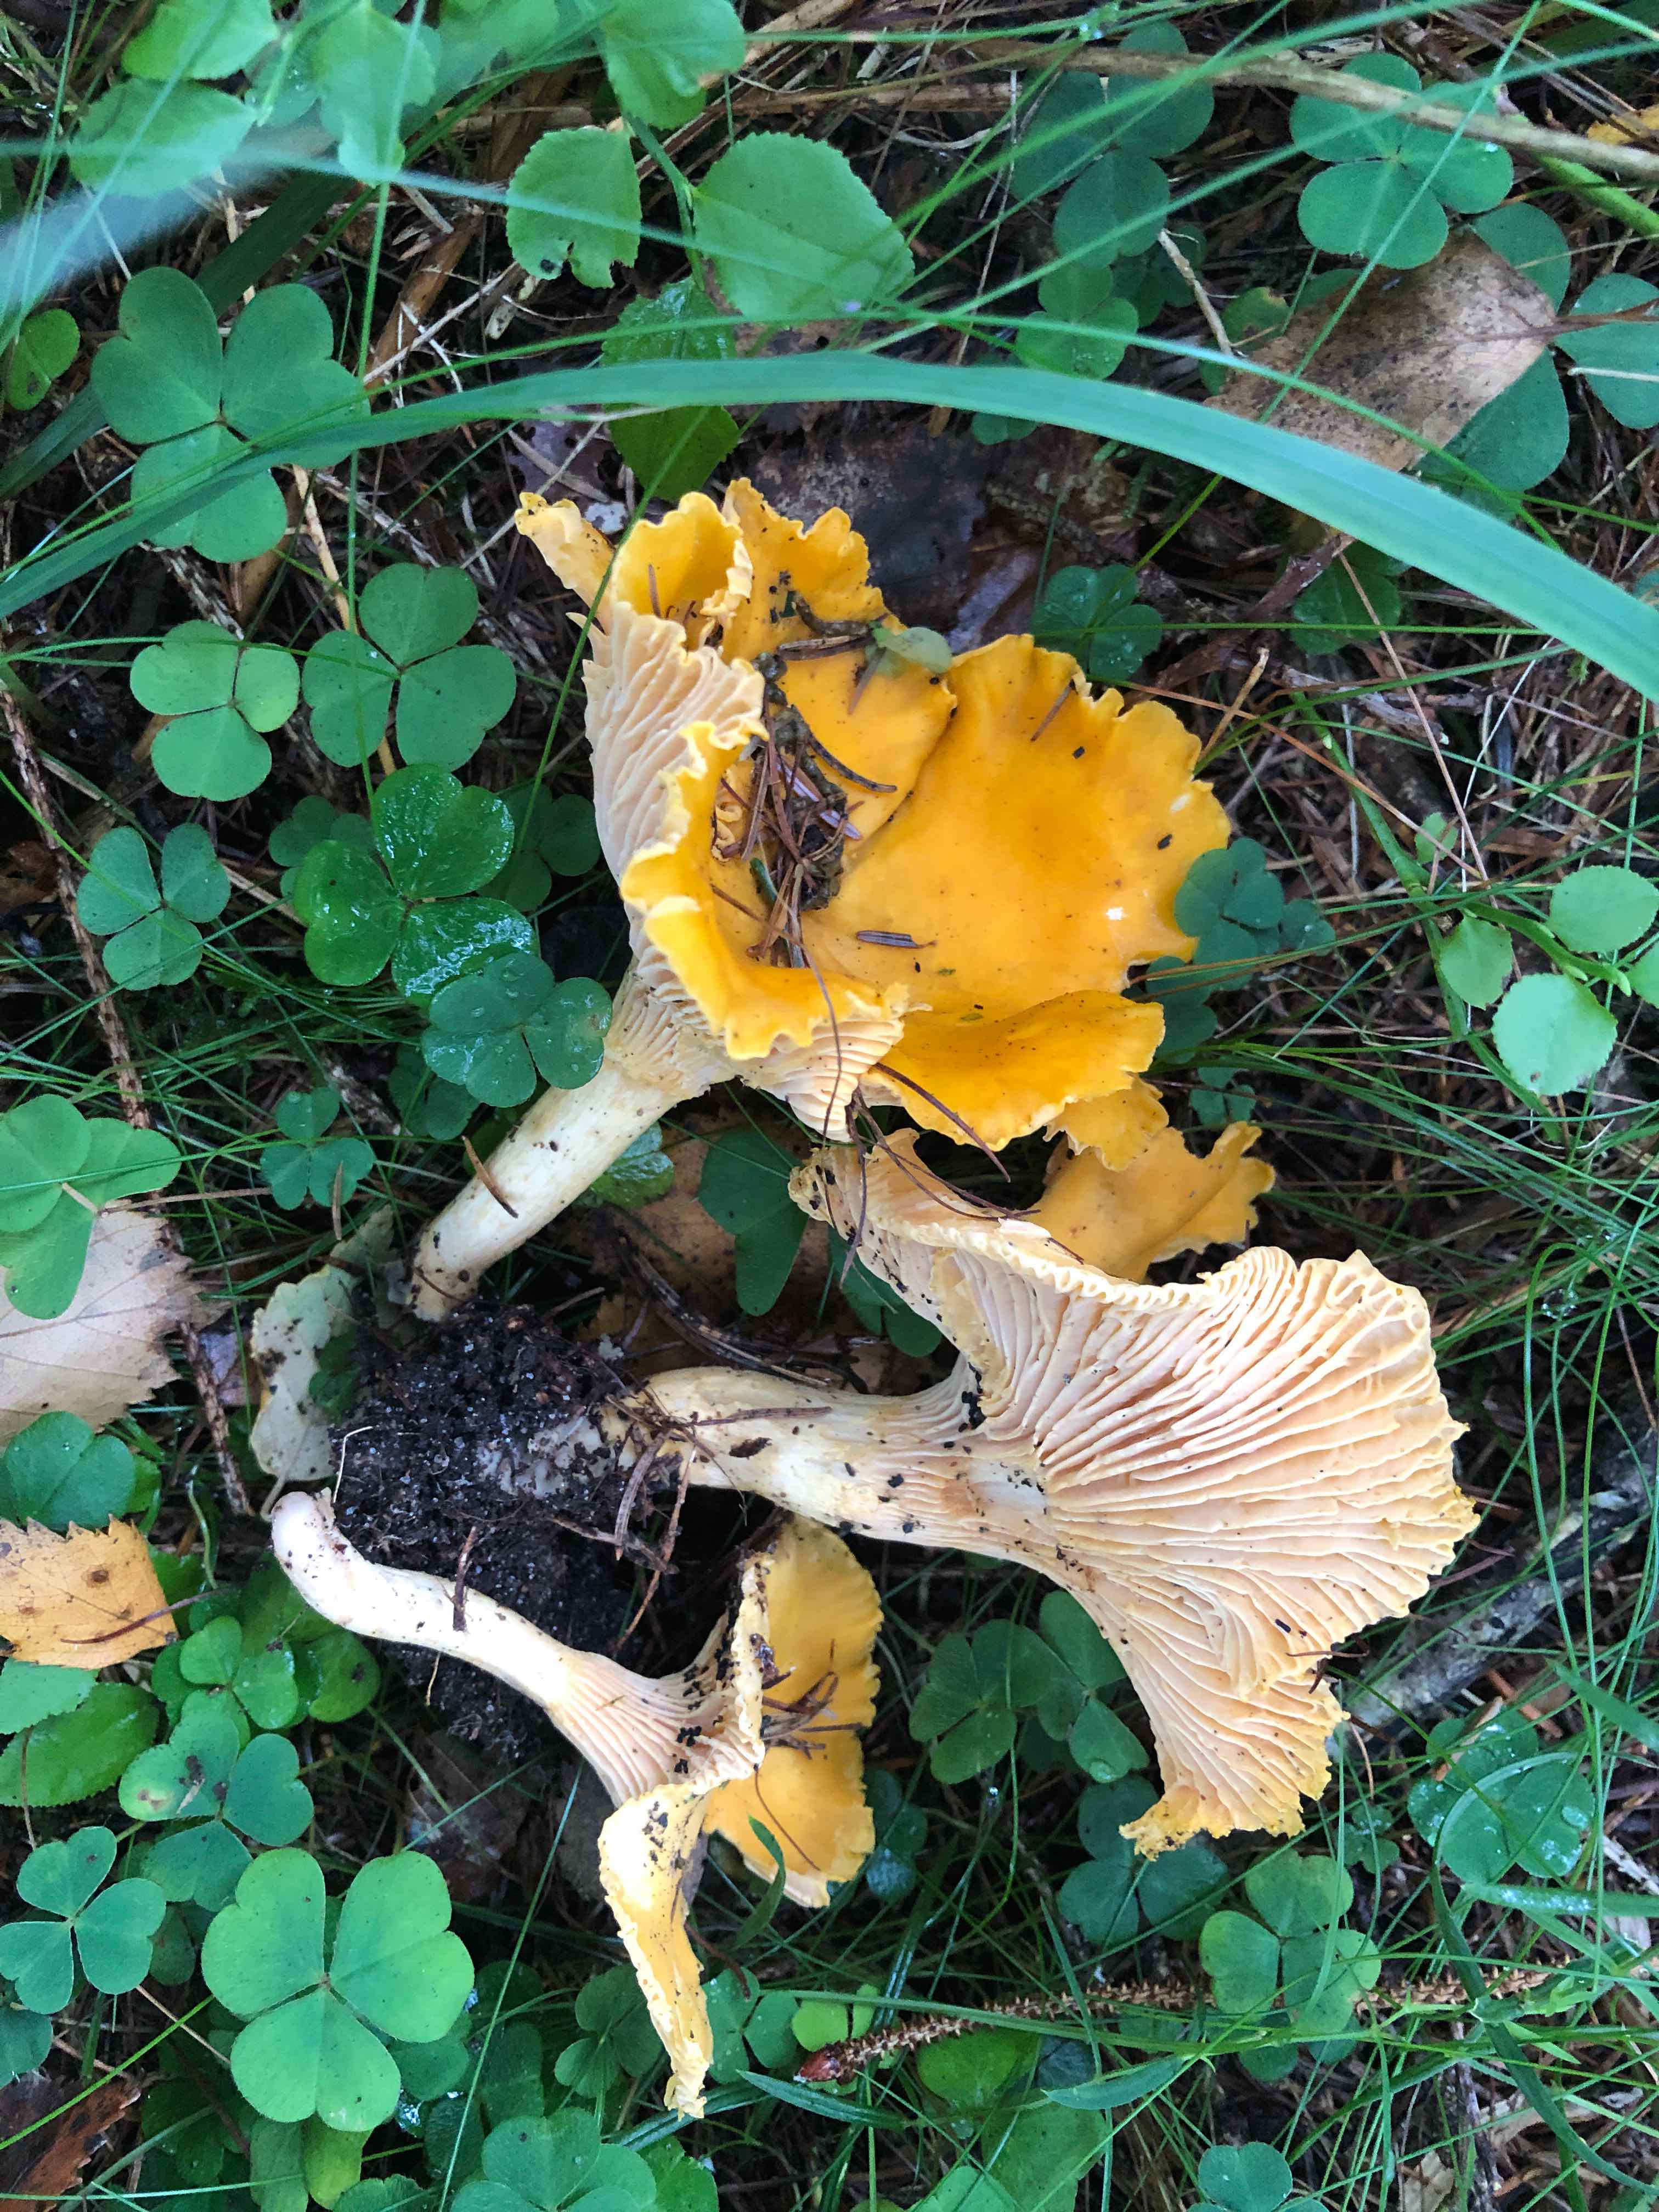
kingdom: Fungi
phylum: Basidiomycota
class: Agaricomycetes
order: Cantharellales
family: Hydnaceae
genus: Cantharellus
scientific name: Cantharellus cibarius
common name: almindelig kantarel
